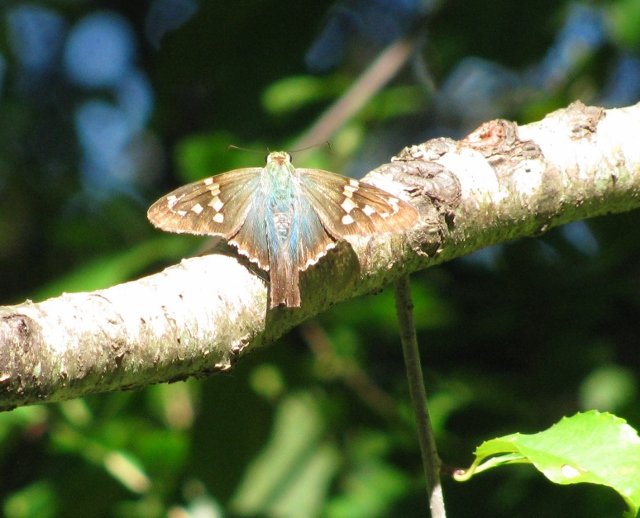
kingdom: Animalia
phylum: Arthropoda
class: Insecta
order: Lepidoptera
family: Hesperiidae
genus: Urbanus
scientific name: Urbanus proteus
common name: Long-tailed Skipper
